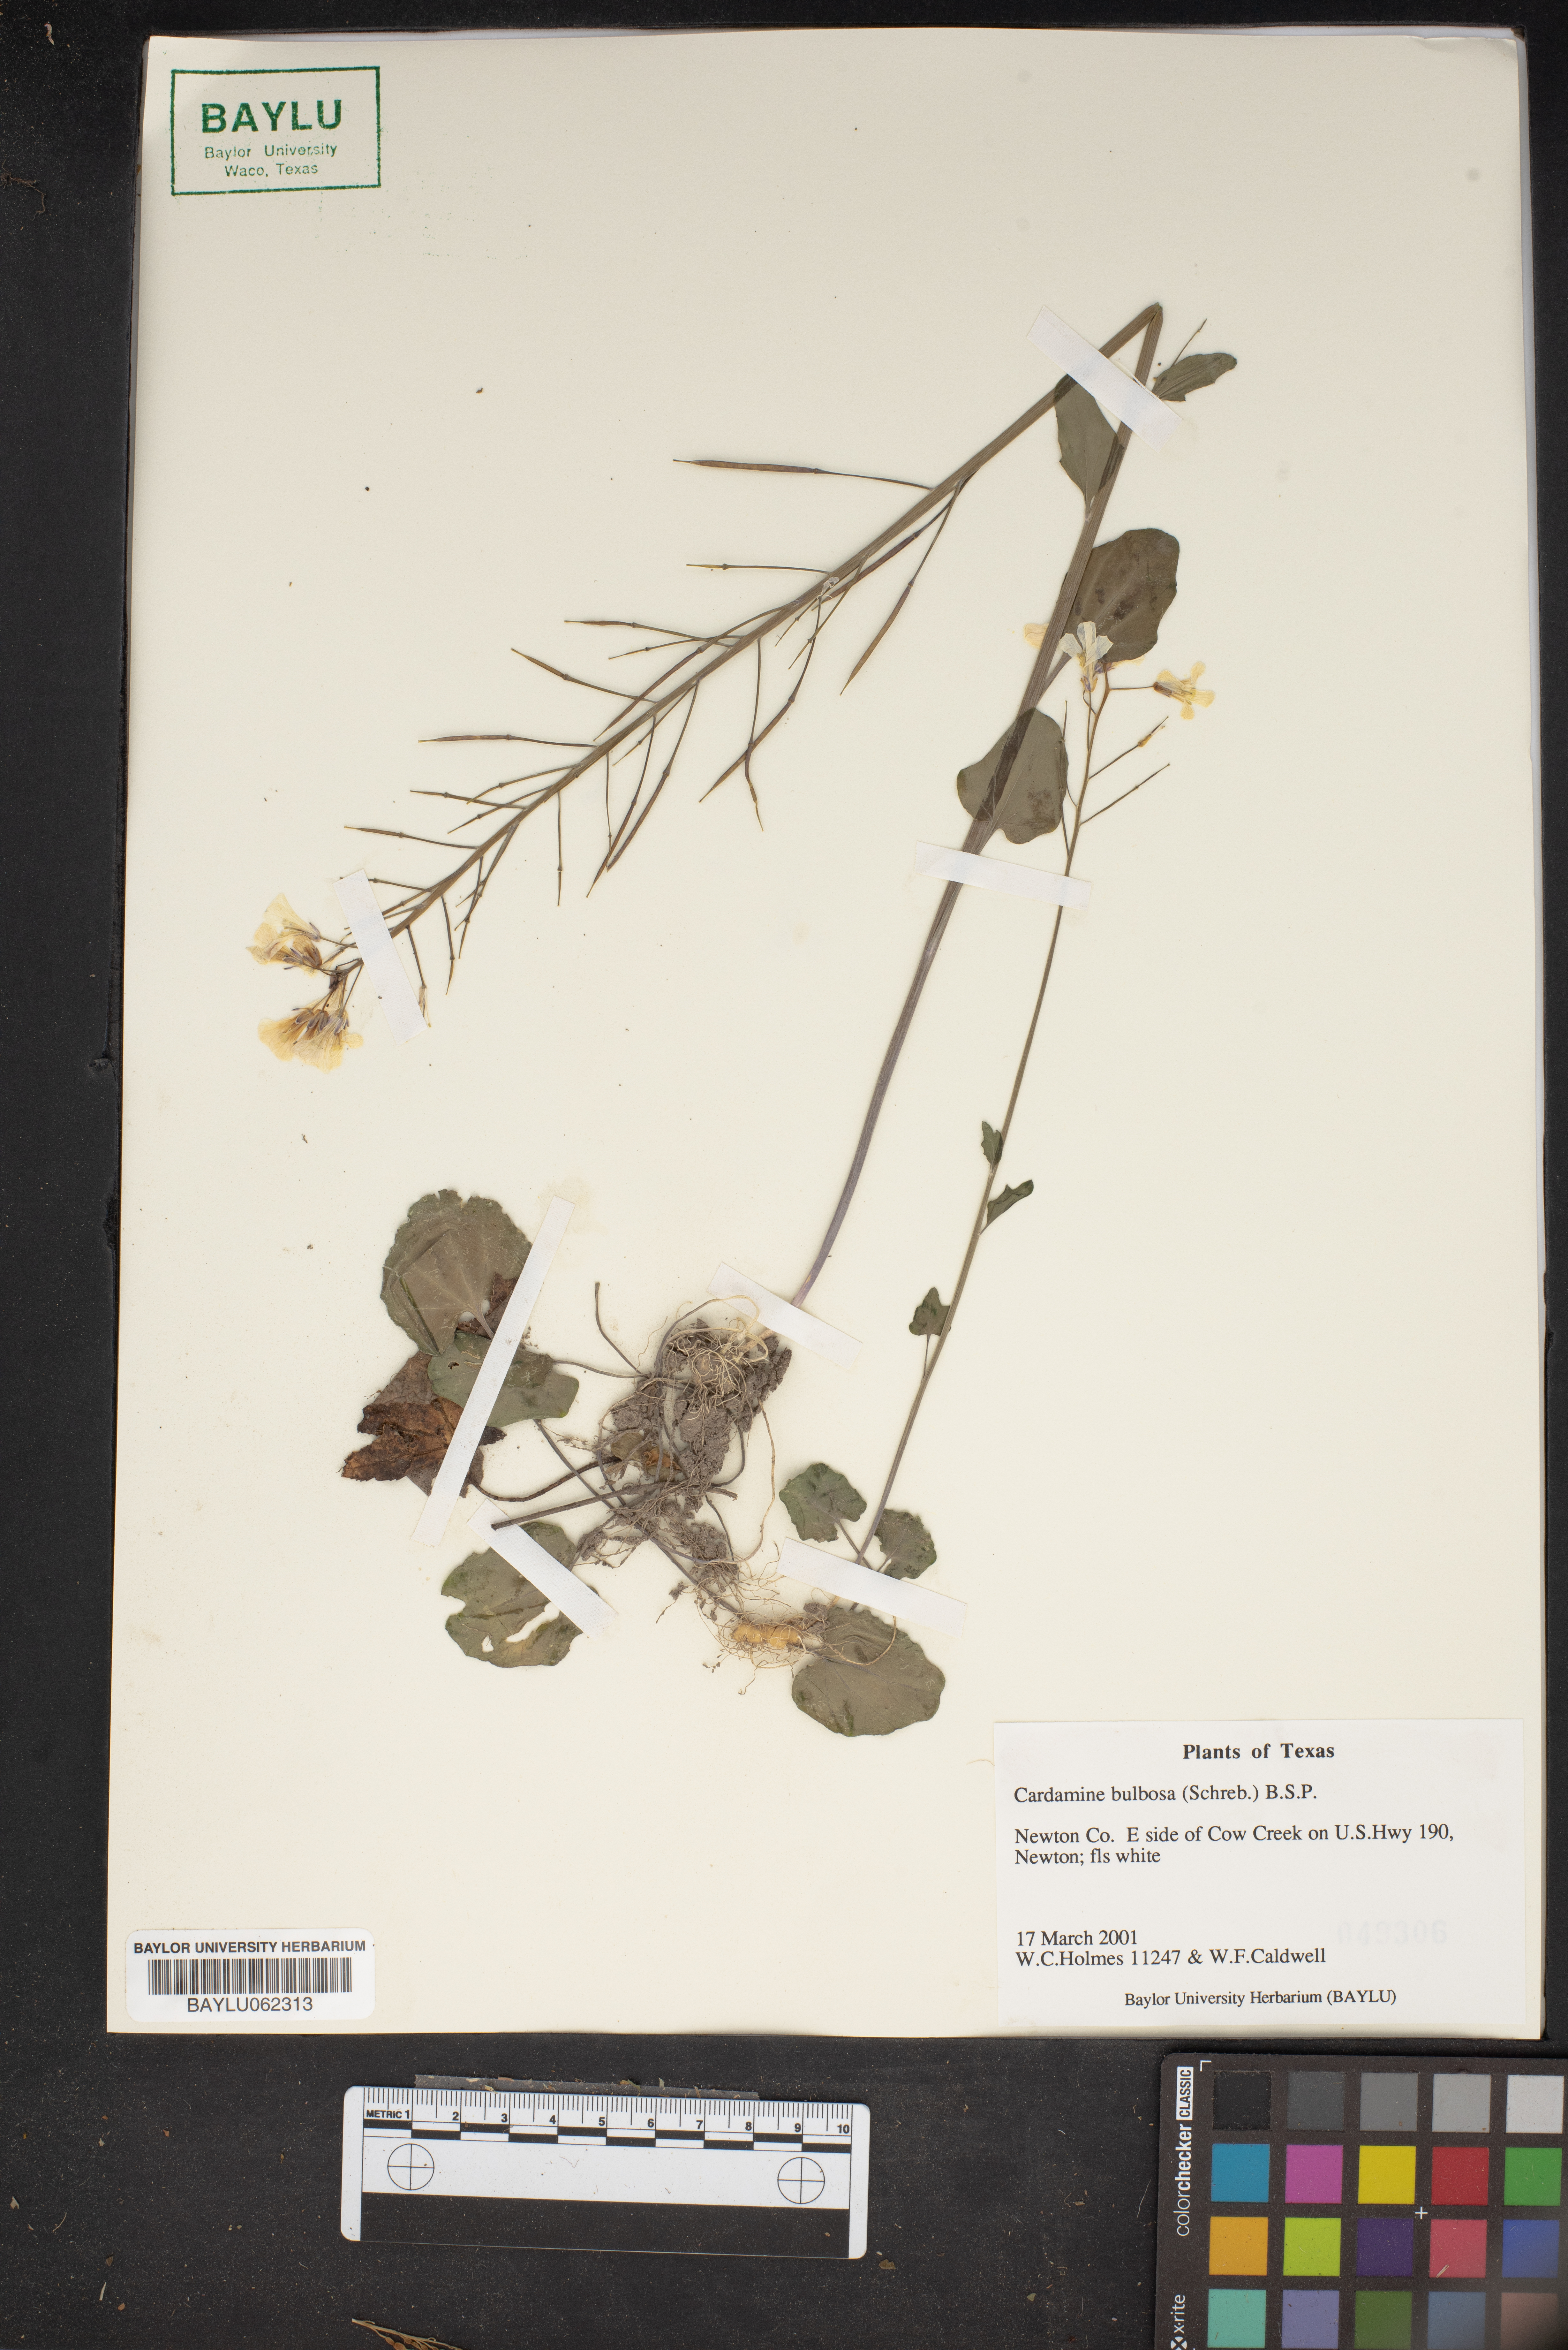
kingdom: Plantae
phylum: Tracheophyta
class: Magnoliopsida
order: Brassicales
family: Brassicaceae
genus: Cardamine
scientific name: Cardamine bulbosa
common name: Spring cress
